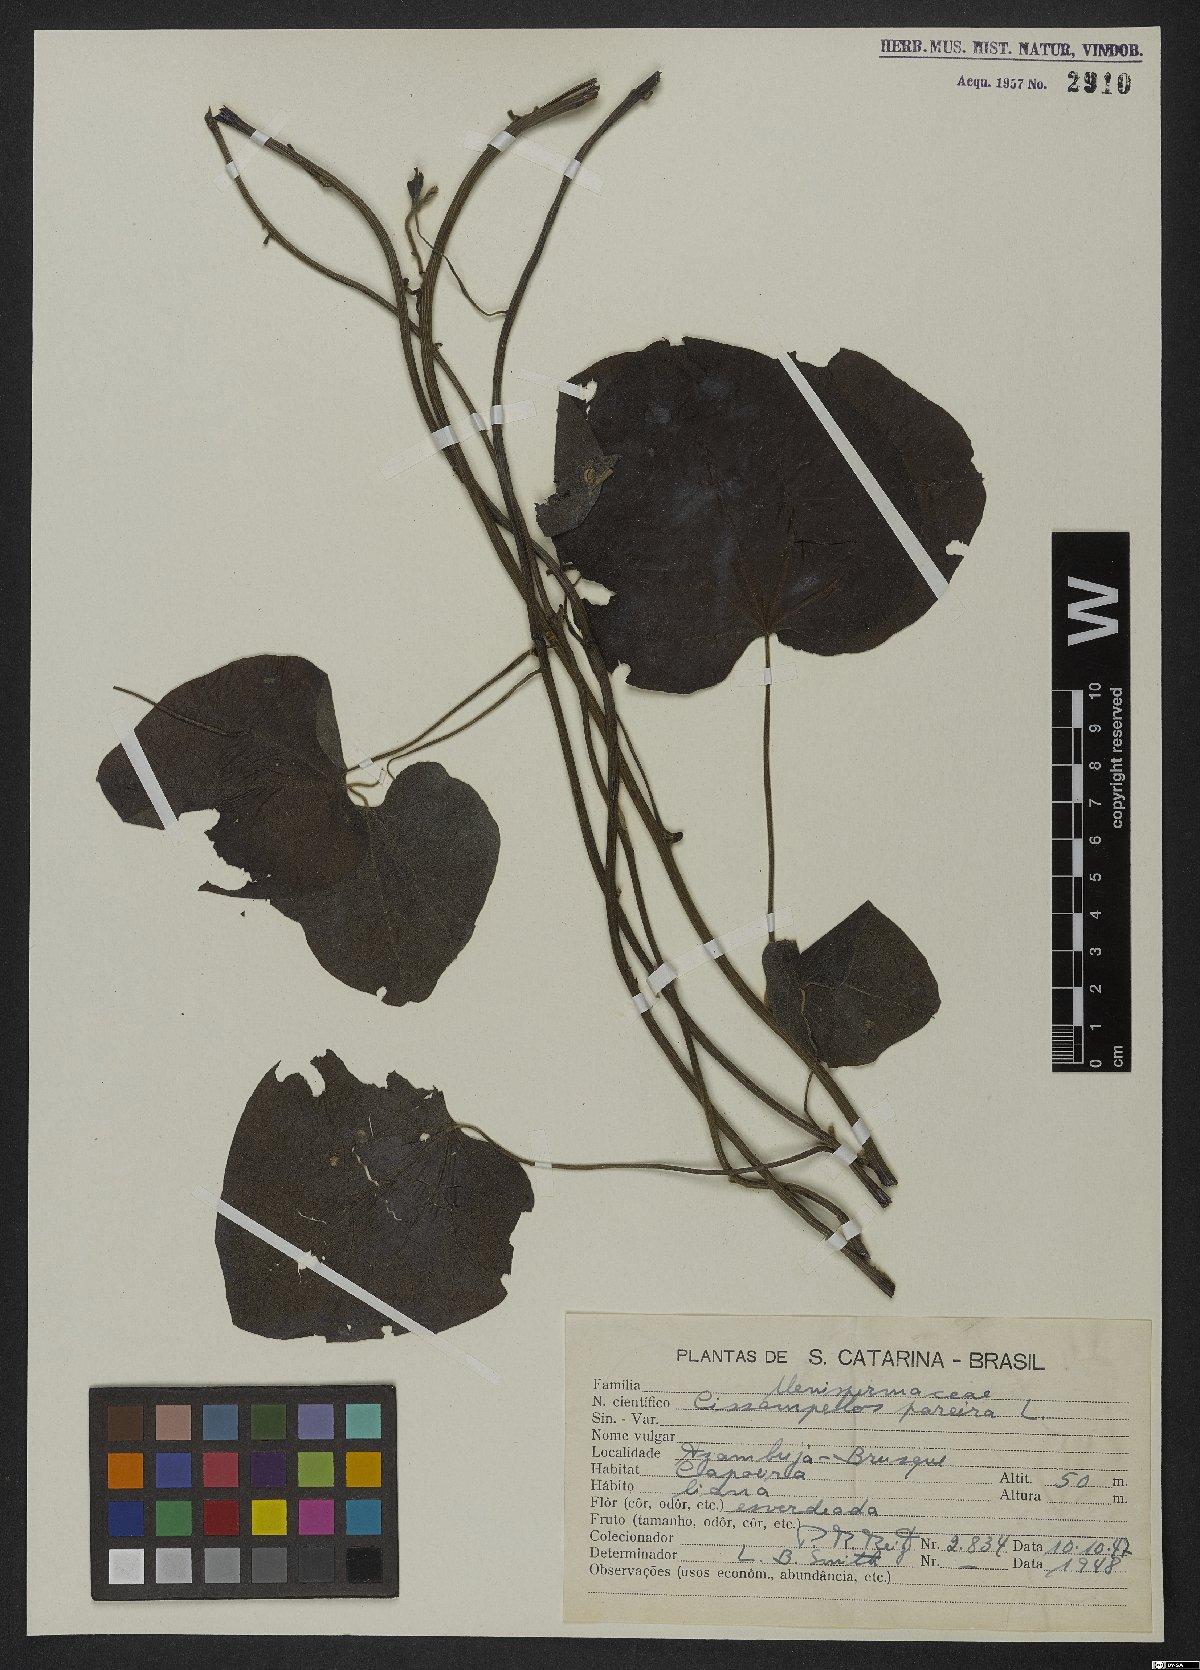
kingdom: Plantae
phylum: Tracheophyta
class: Magnoliopsida
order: Ranunculales
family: Menispermaceae
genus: Cissampelos
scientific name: Cissampelos pareira
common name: Velvetleaf
